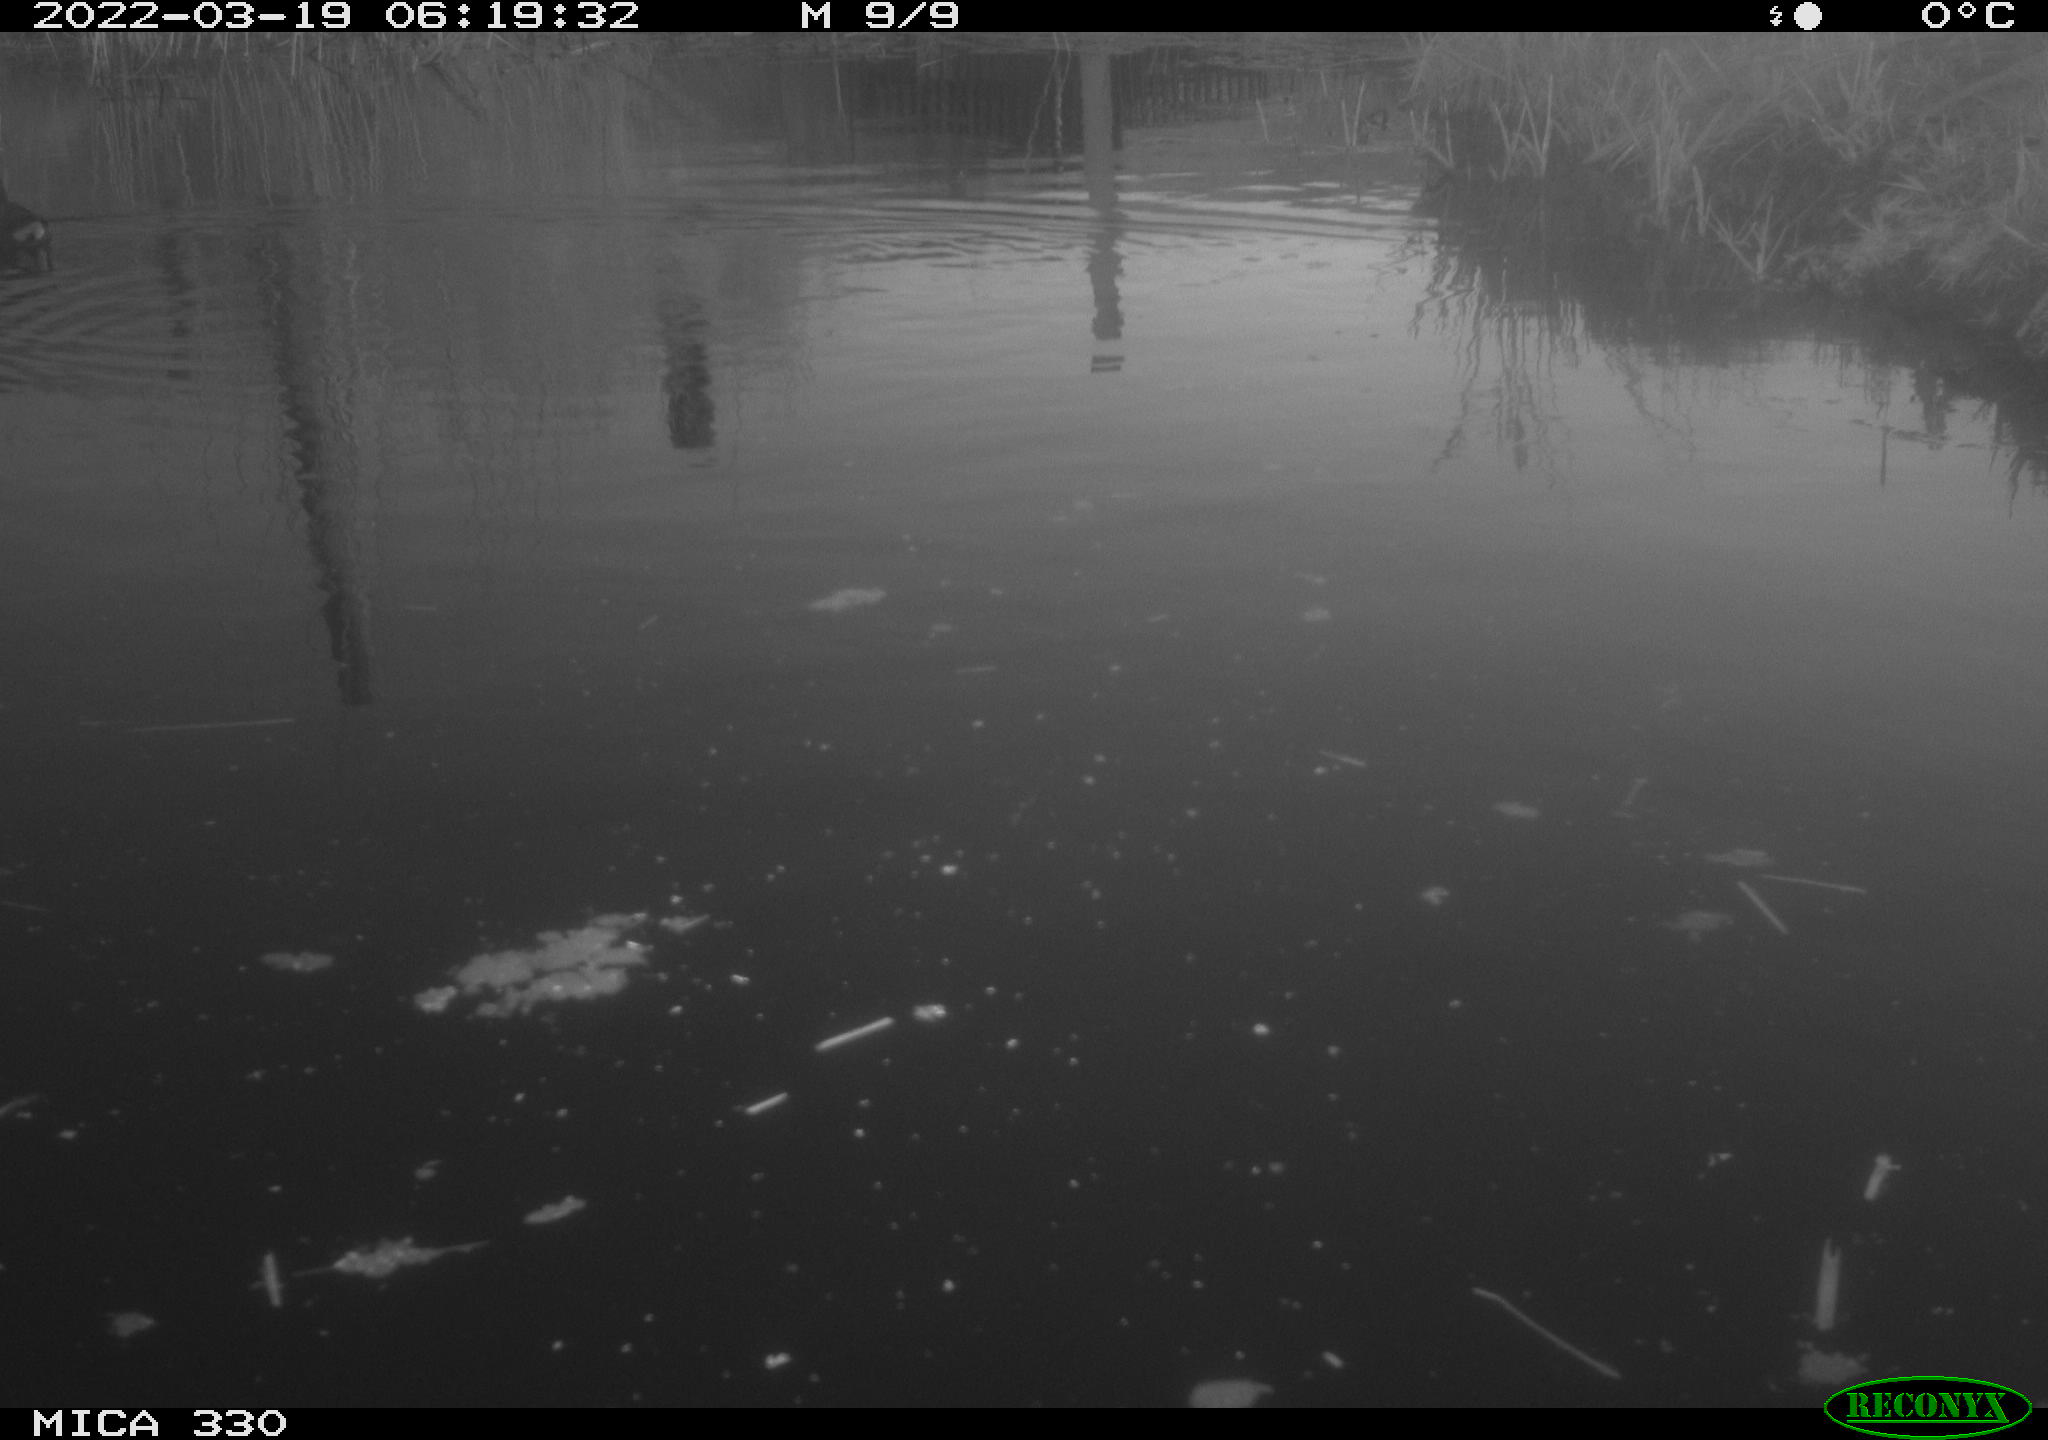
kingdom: Animalia
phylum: Chordata
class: Aves
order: Gruiformes
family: Rallidae
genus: Gallinula
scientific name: Gallinula chloropus
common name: Common moorhen
